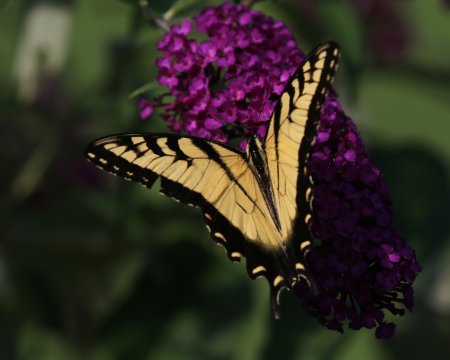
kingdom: Animalia
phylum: Arthropoda
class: Insecta
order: Lepidoptera
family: Papilionidae
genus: Pterourus
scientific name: Pterourus glaucus
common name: Eastern Tiger Swallowtail
